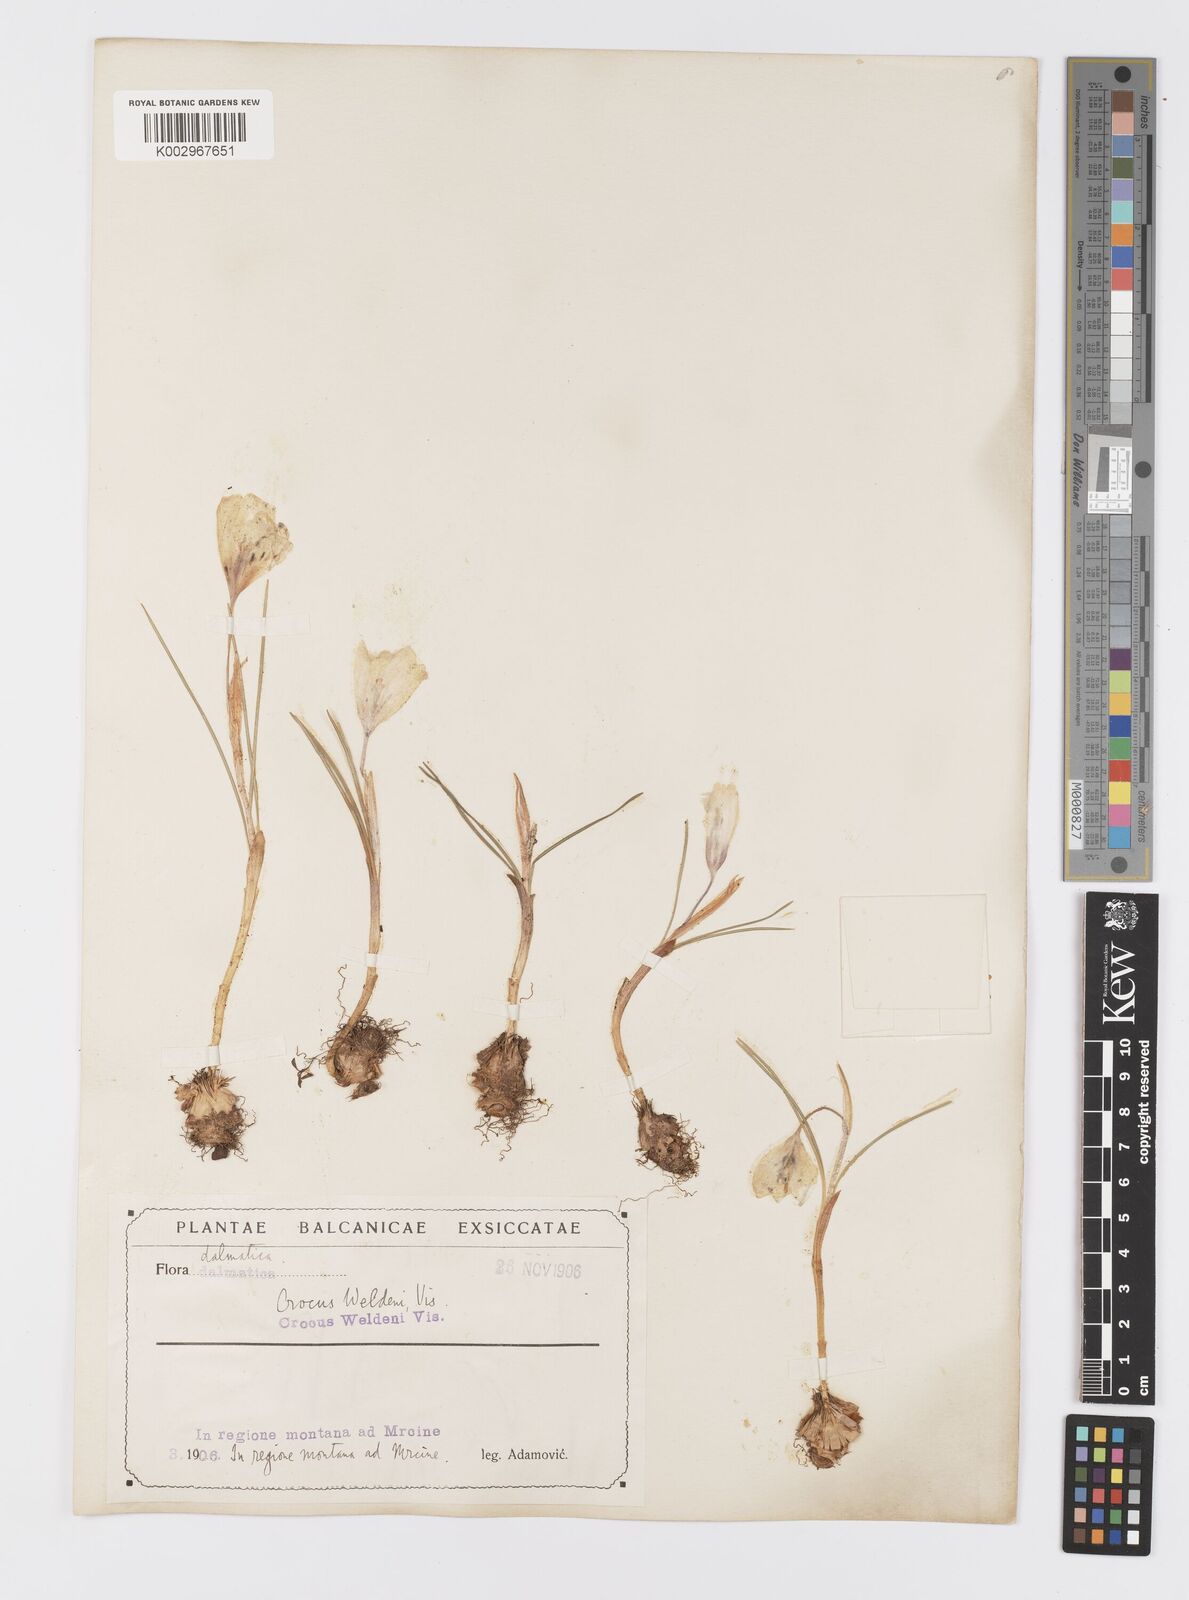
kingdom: Plantae
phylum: Tracheophyta
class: Liliopsida
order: Asparagales
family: Iridaceae
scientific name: Iridaceae
